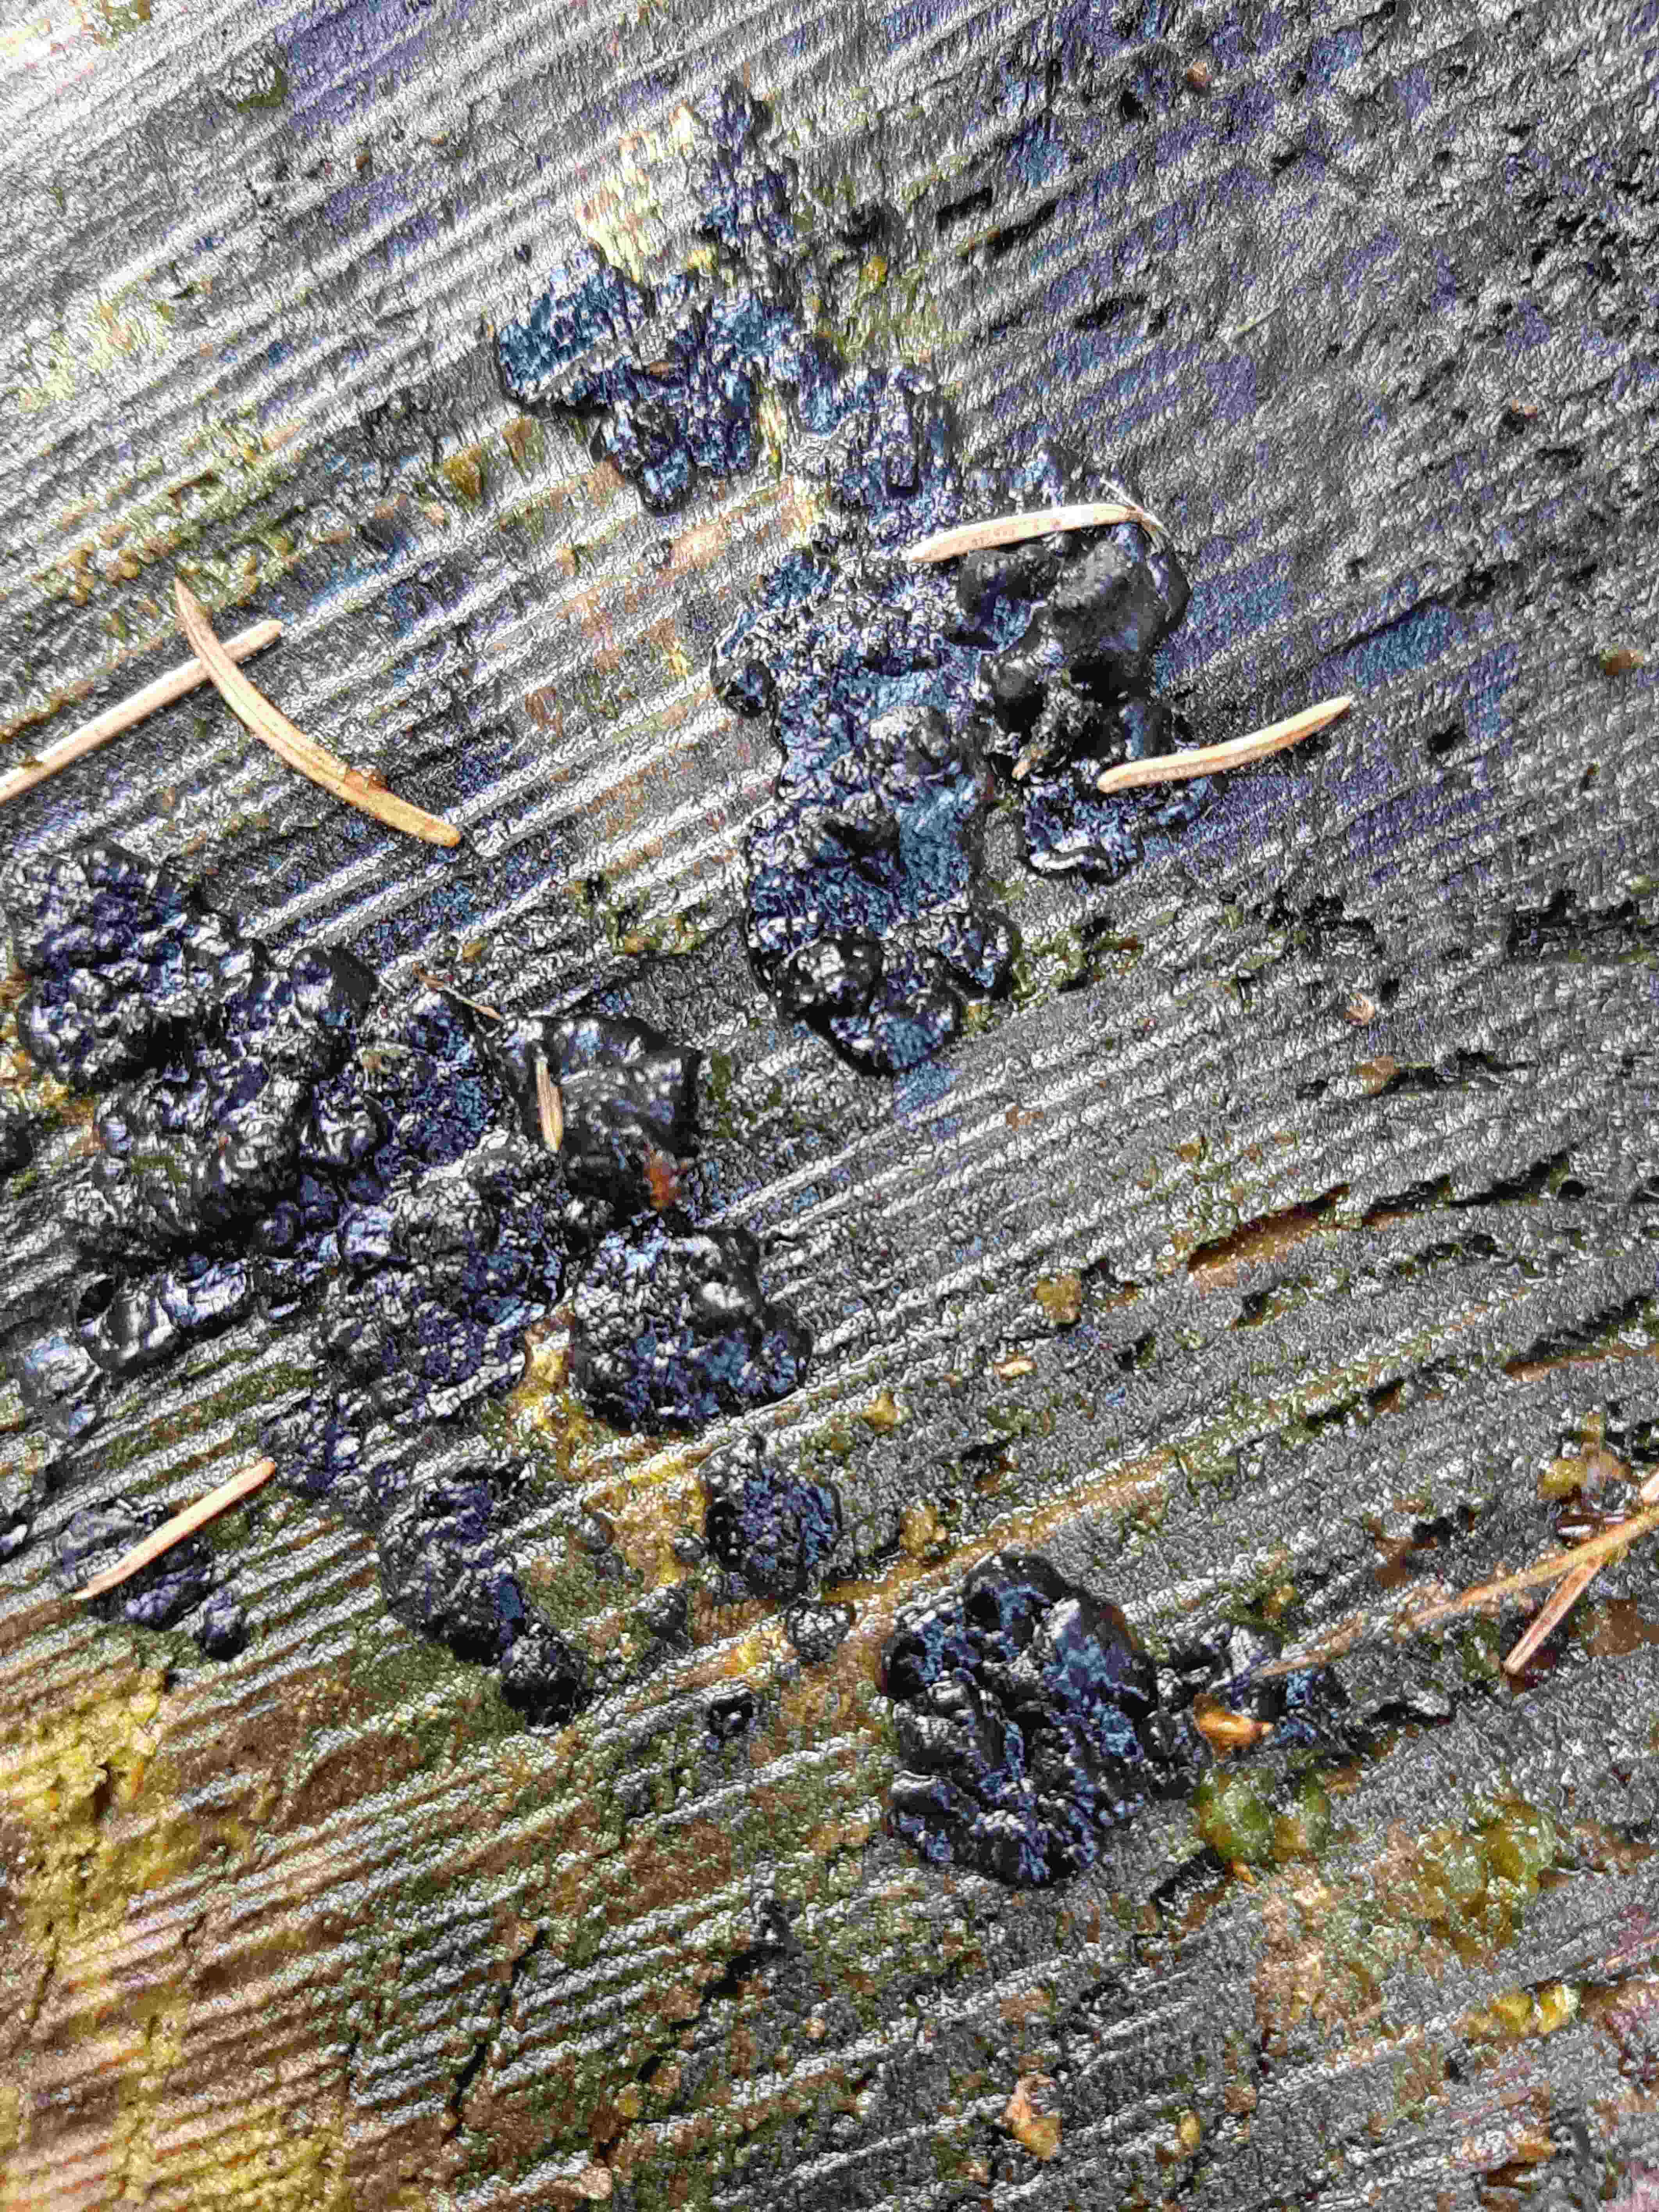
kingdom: Fungi
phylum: Basidiomycota
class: Agaricomycetes
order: Auriculariales
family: Auriculariaceae
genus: Exidia
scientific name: Exidia pithya
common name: gran-bævretop
